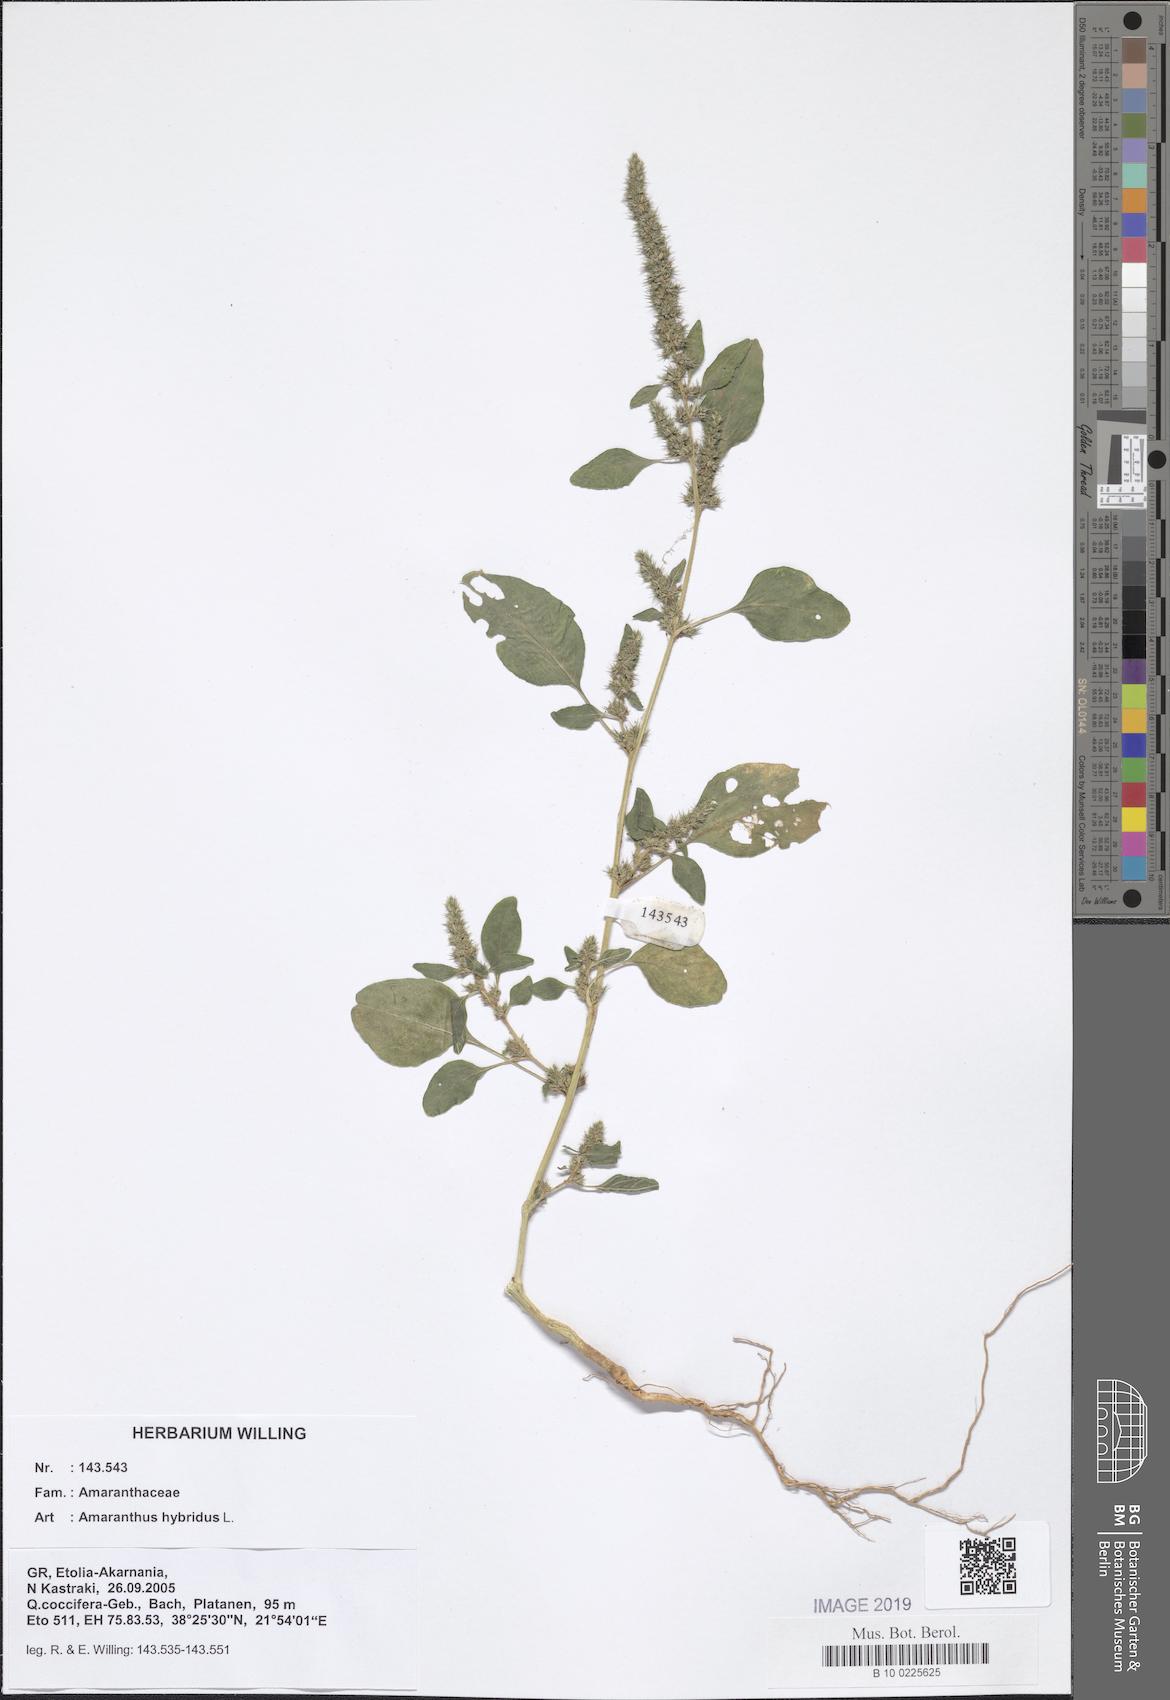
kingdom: Plantae
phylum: Tracheophyta
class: Magnoliopsida
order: Caryophyllales
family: Amaranthaceae
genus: Amaranthus
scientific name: Amaranthus hybridus
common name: Green amaranth
